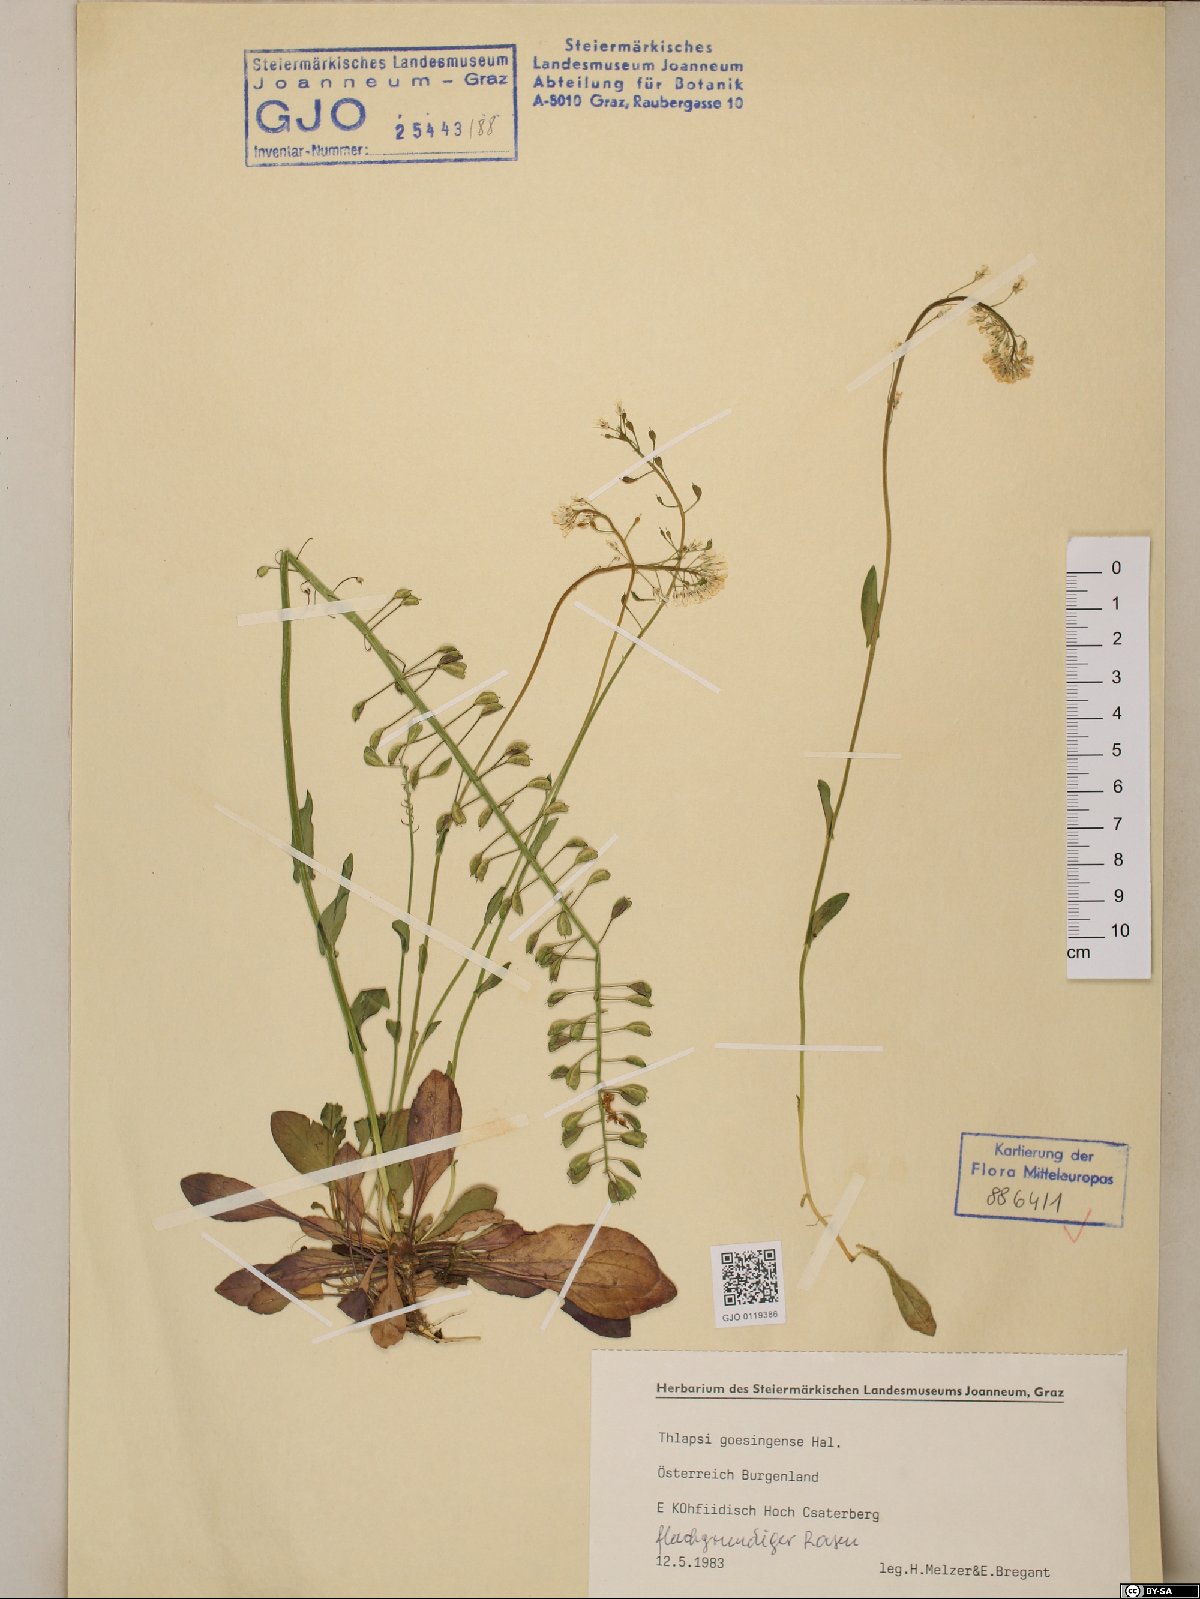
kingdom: Plantae
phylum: Tracheophyta
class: Magnoliopsida
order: Brassicales
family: Brassicaceae
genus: Noccaea
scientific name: Noccaea goesingensis
